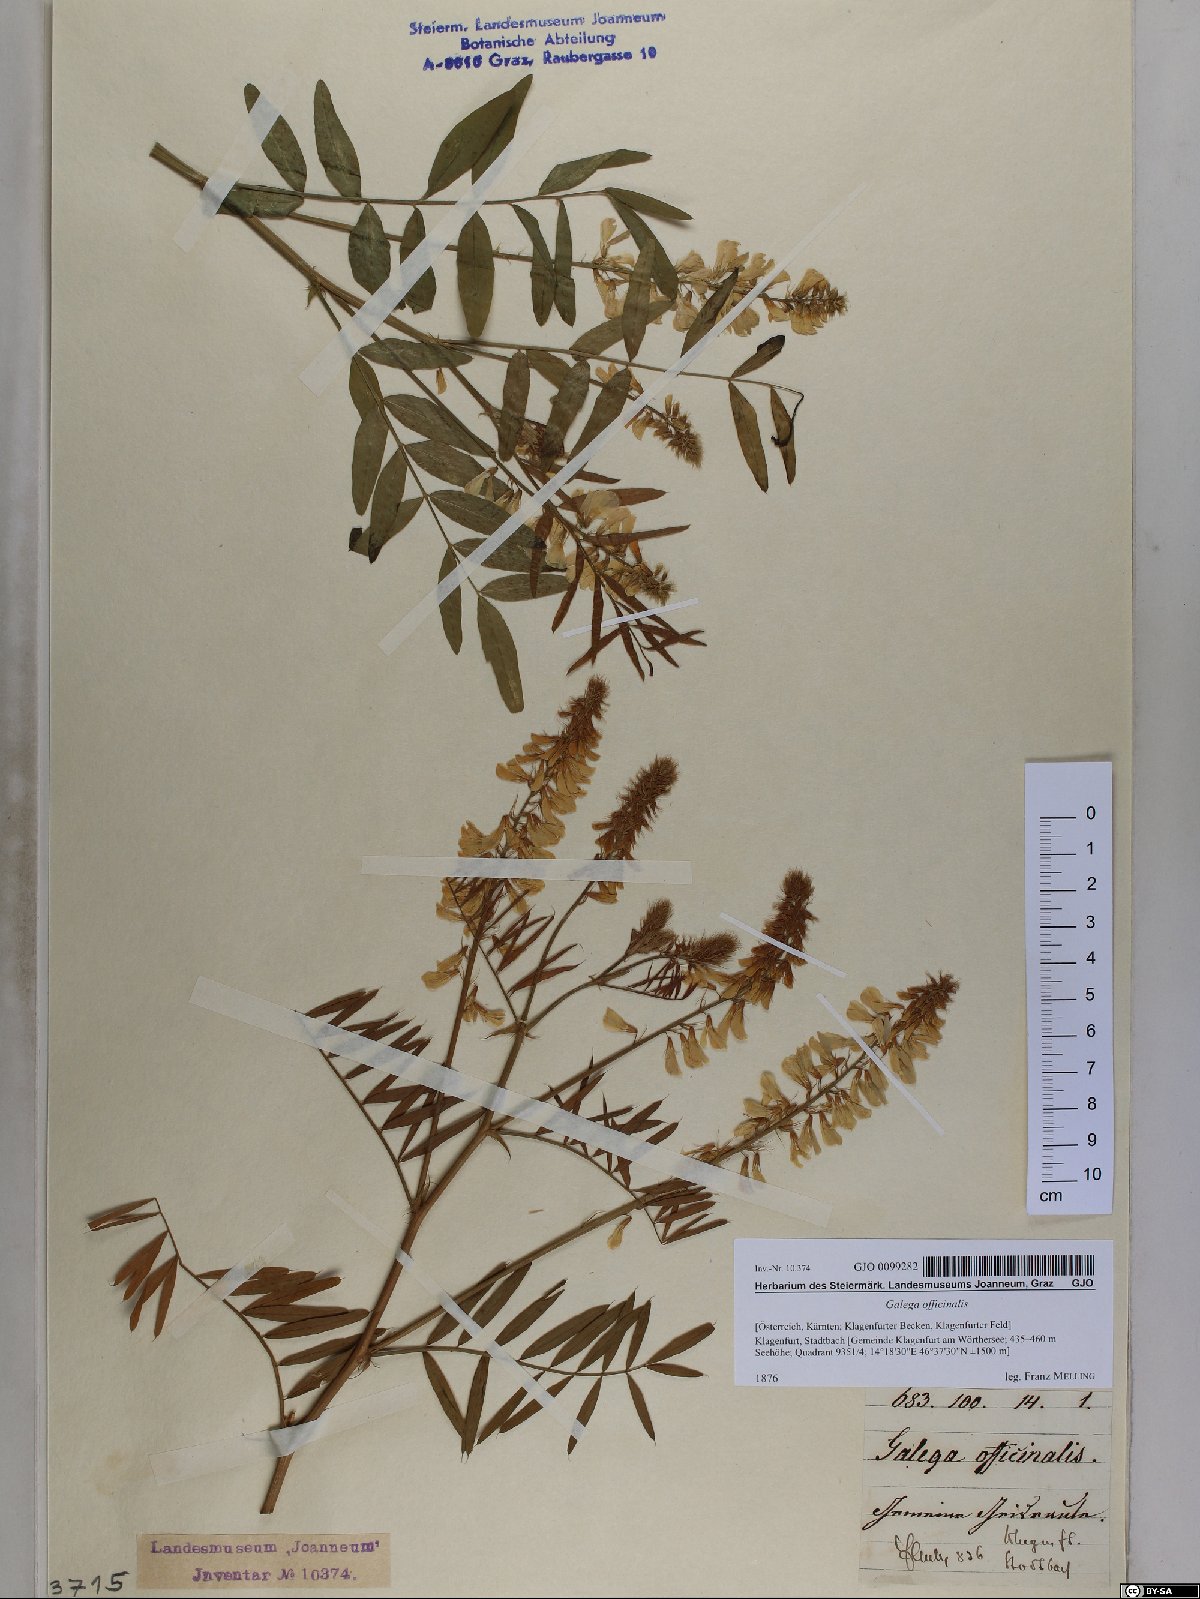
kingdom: Plantae
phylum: Tracheophyta
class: Magnoliopsida
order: Fabales
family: Fabaceae
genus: Galega
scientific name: Galega officinalis
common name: Goat's-rue
